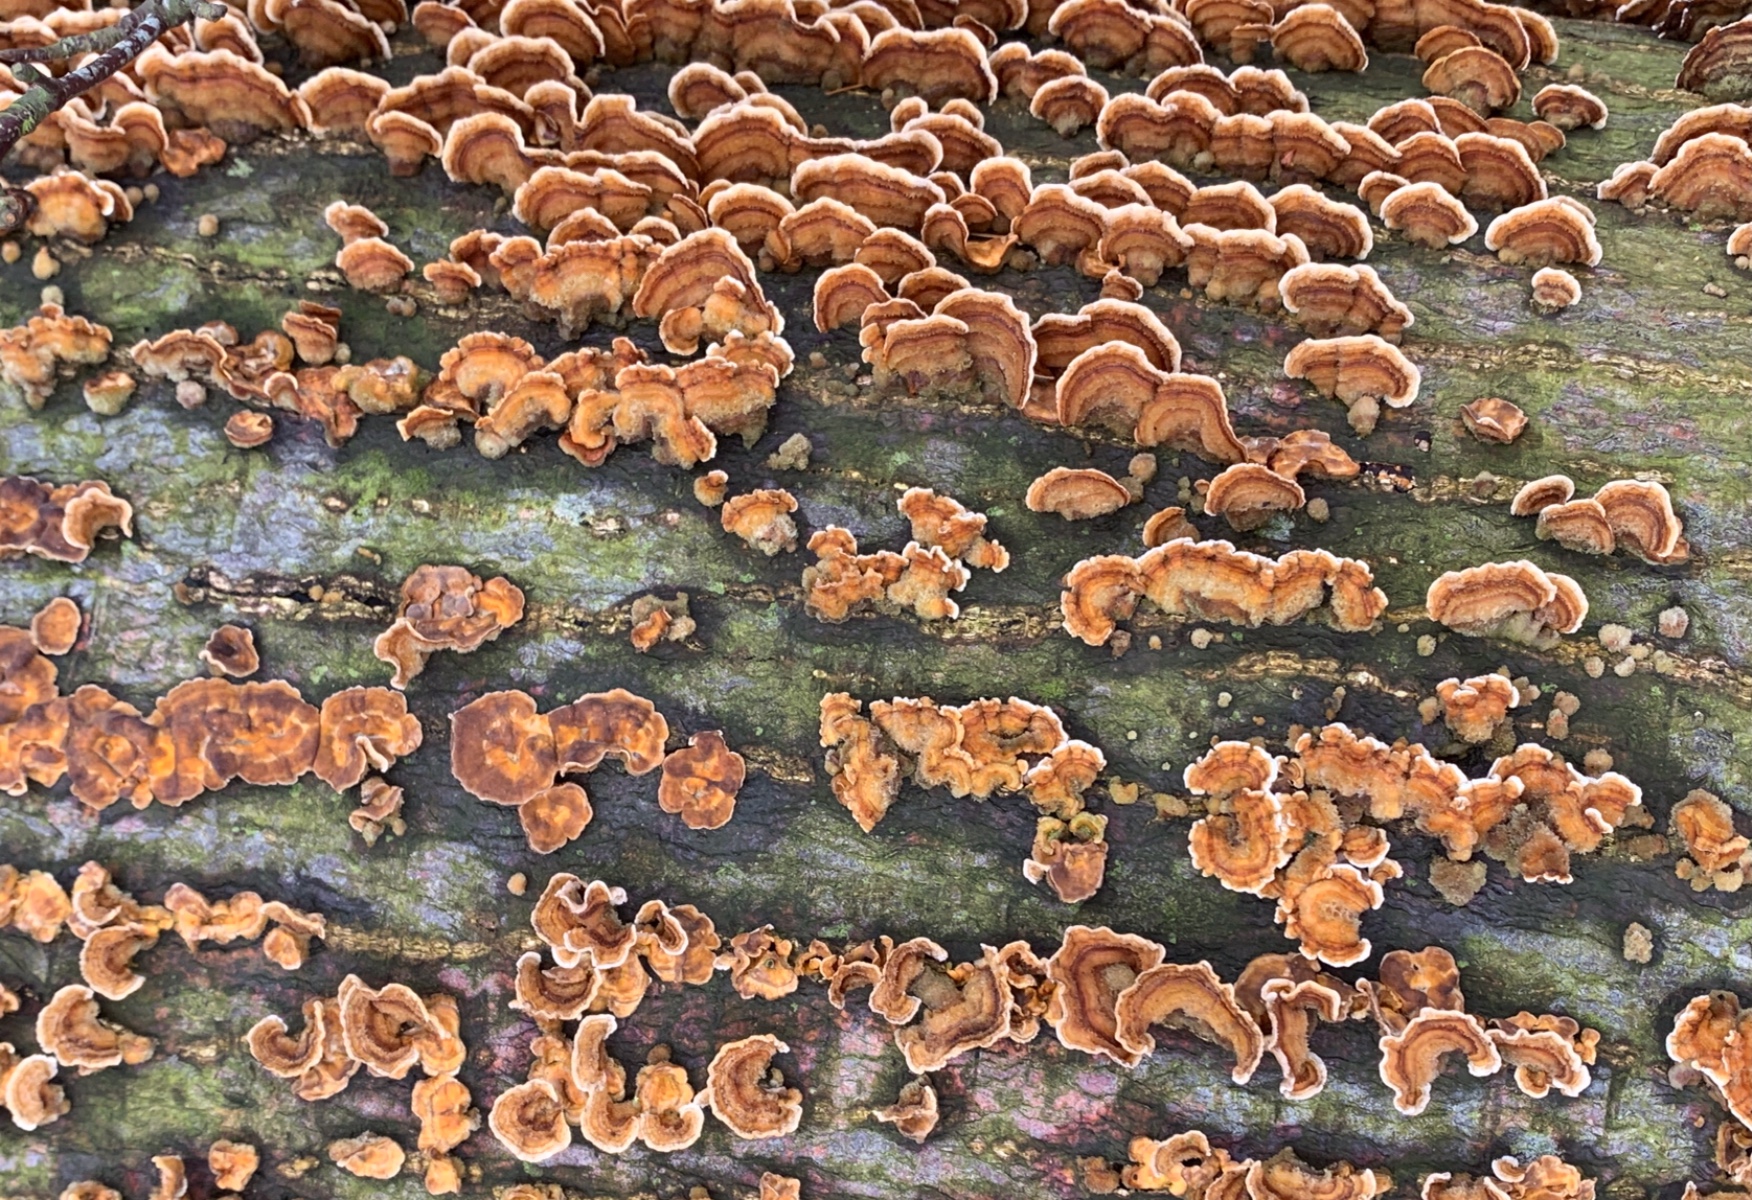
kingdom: Fungi
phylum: Basidiomycota
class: Agaricomycetes
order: Russulales
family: Stereaceae
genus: Stereum
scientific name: Stereum hirsutum
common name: håret lædersvamp
